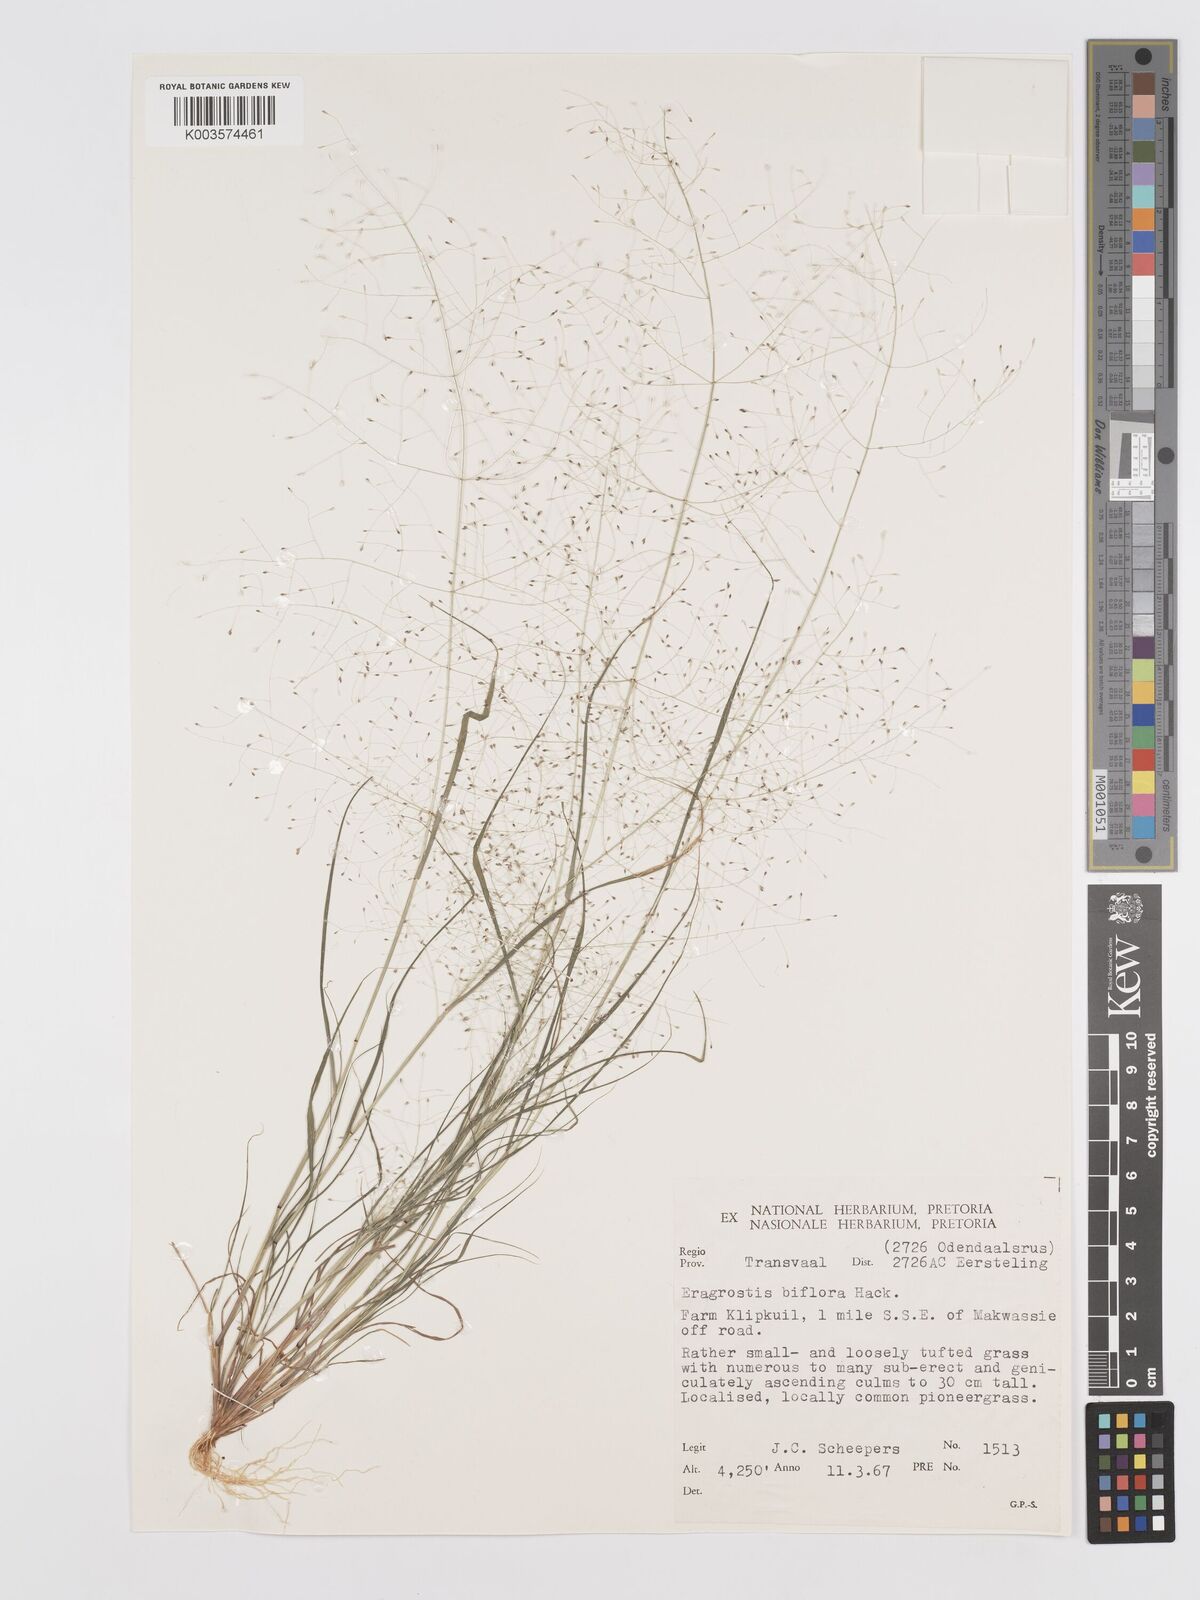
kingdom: Plantae
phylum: Tracheophyta
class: Liliopsida
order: Poales
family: Poaceae
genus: Eragrostis
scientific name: Eragrostis biflora
